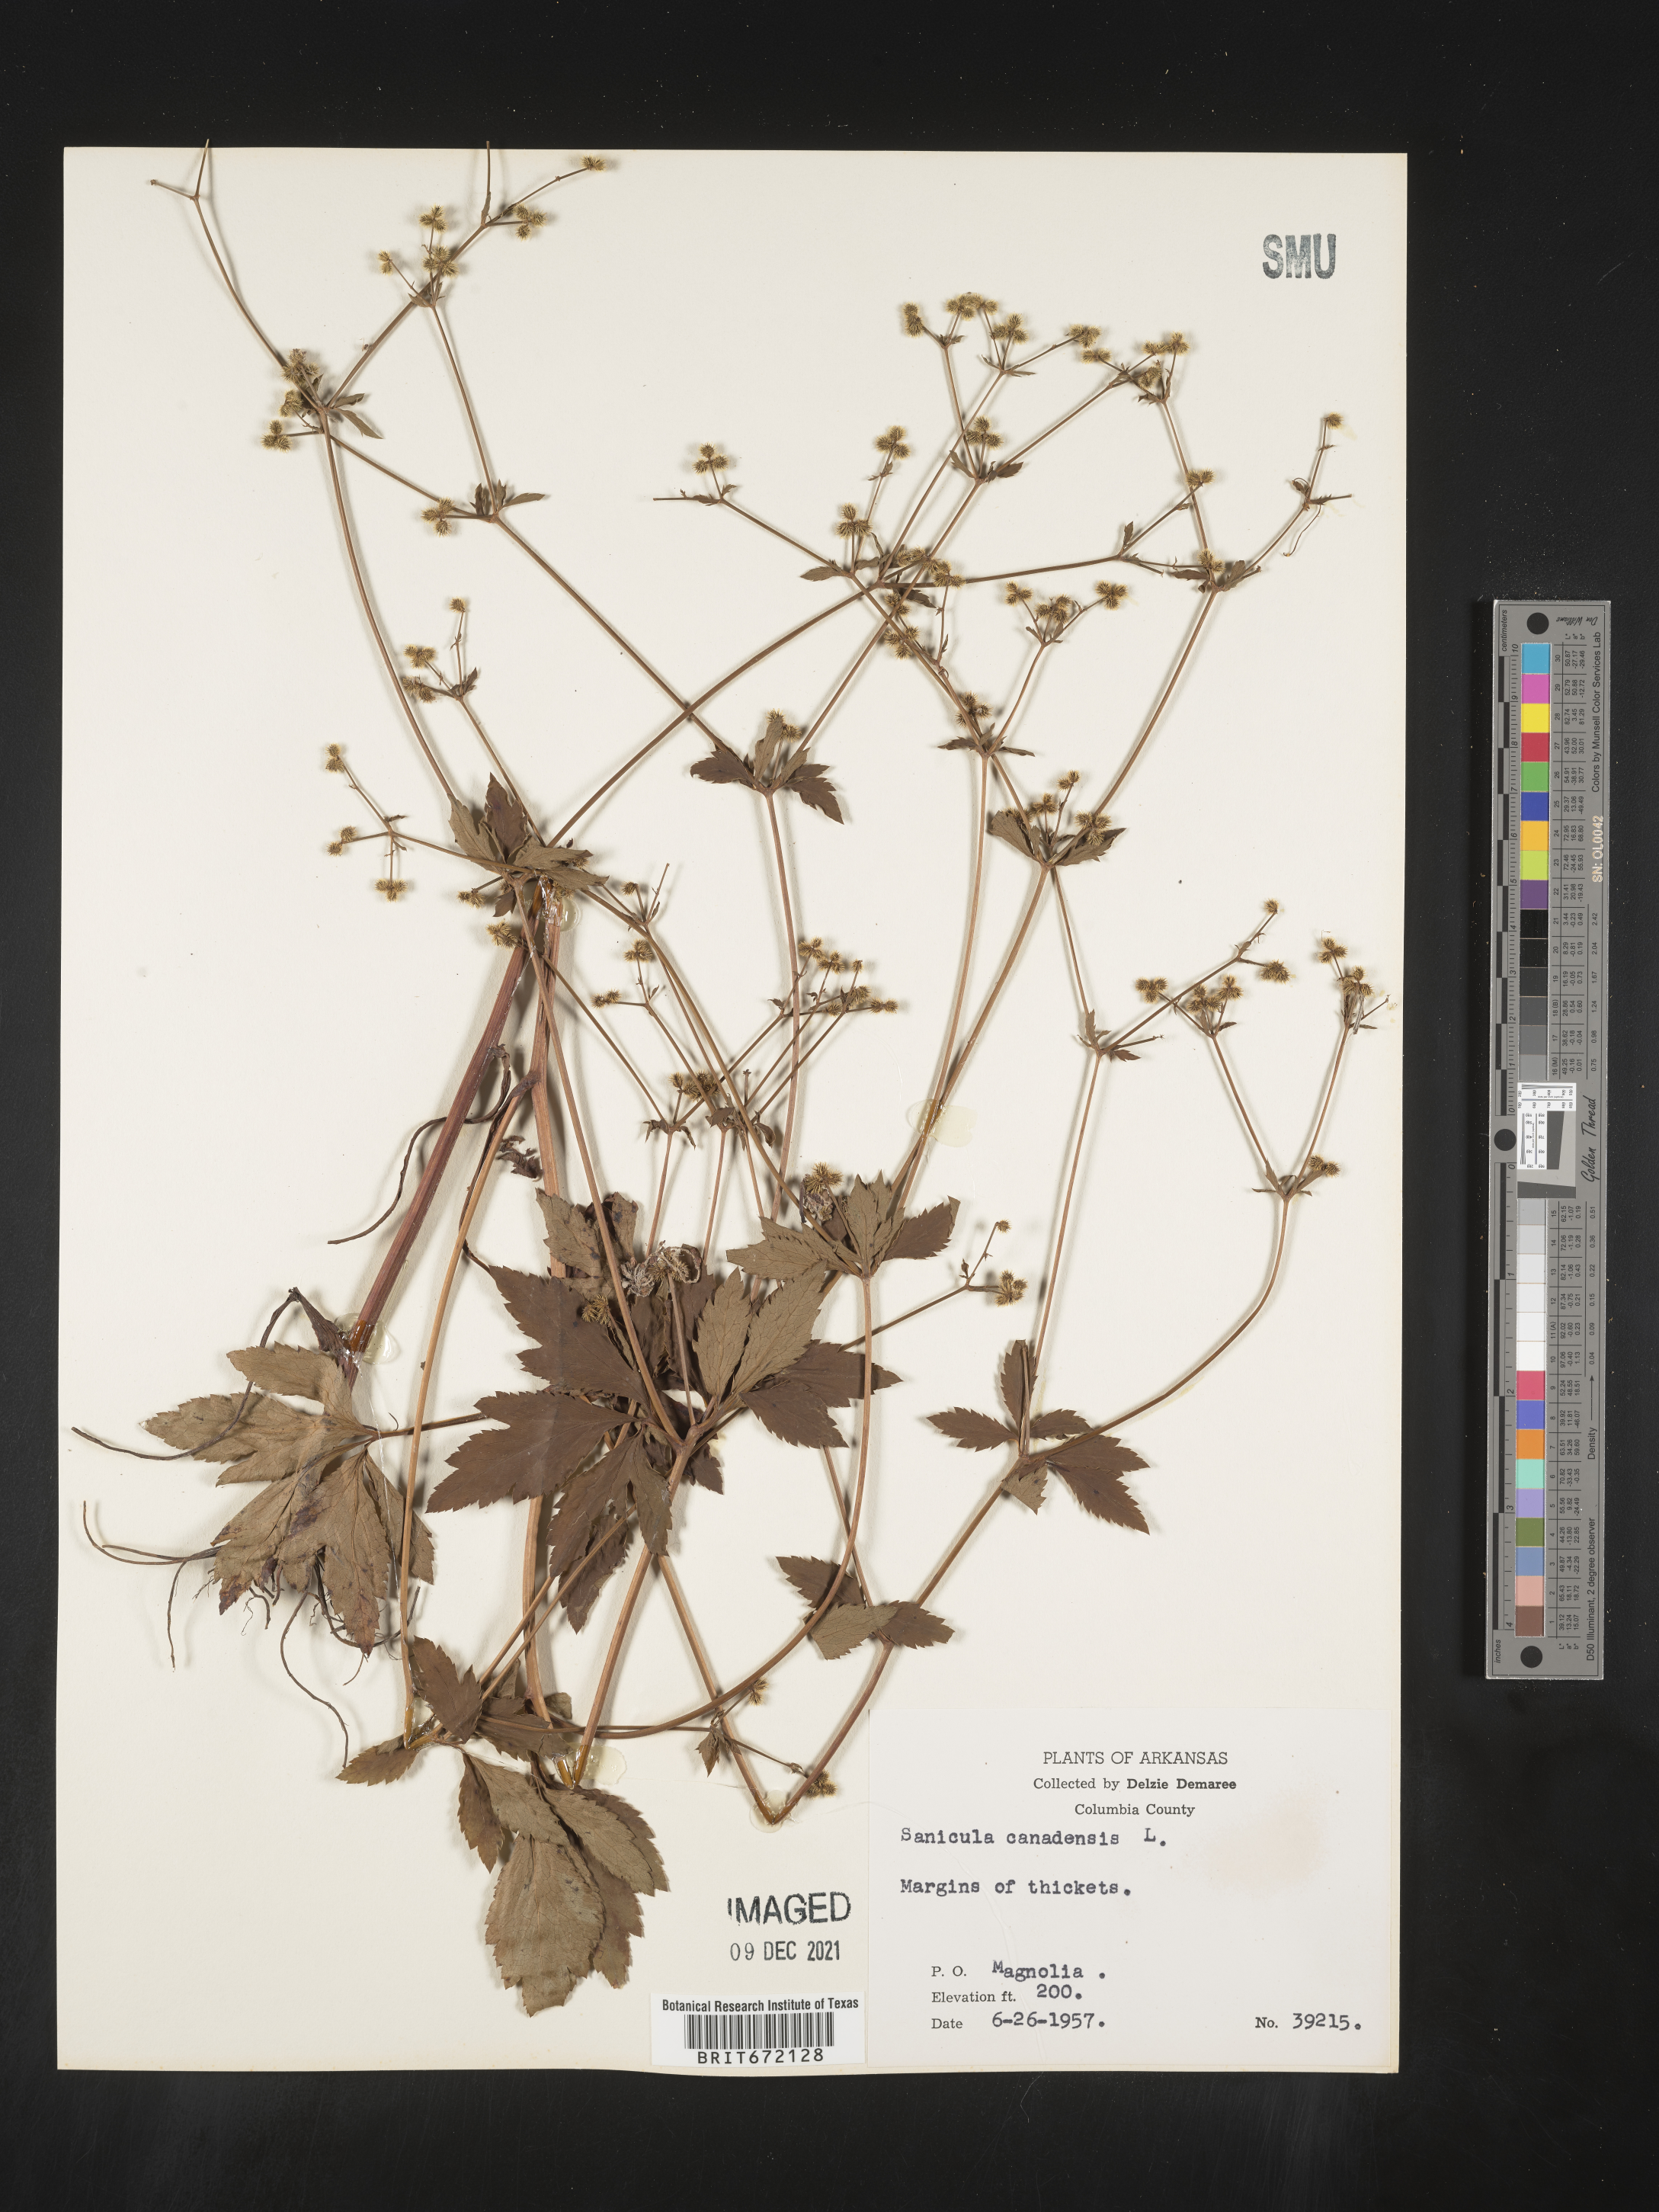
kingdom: Plantae
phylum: Tracheophyta
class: Magnoliopsida
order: Apiales
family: Apiaceae
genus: Sanicula
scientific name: Sanicula canadensis
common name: Canada sanicle
